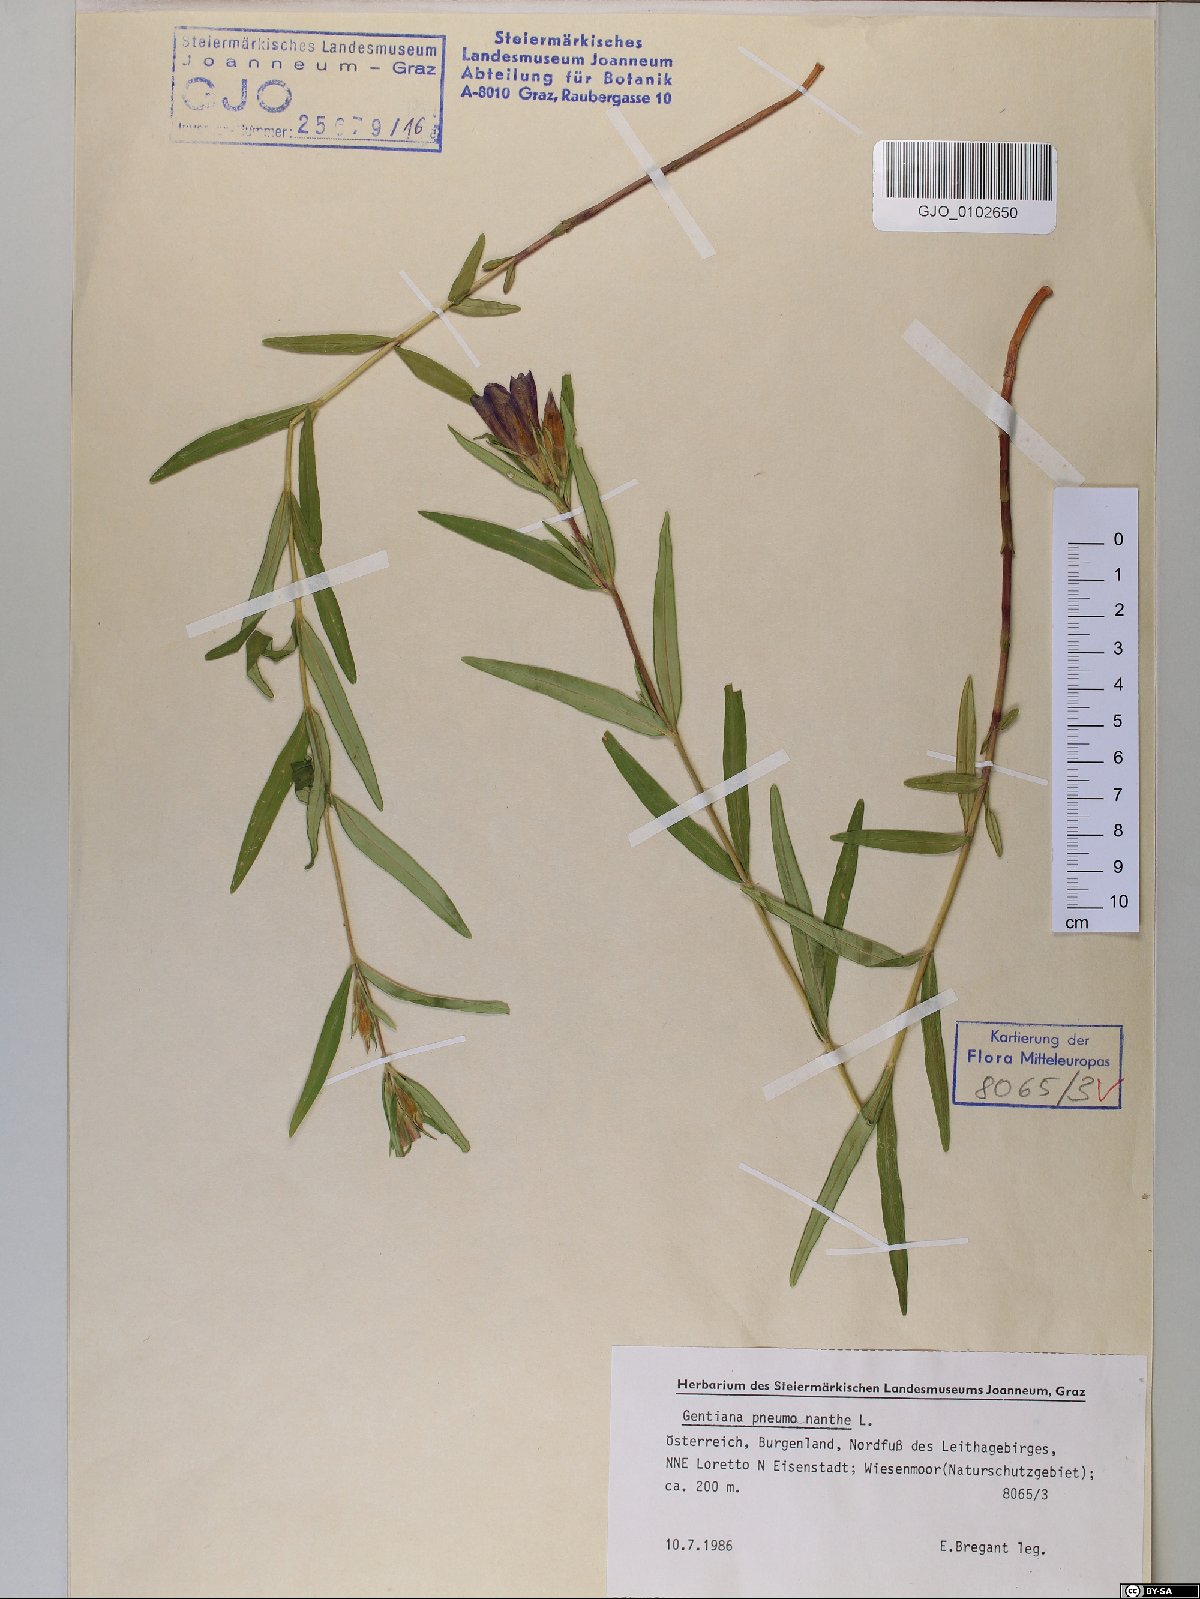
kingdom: Plantae
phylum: Tracheophyta
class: Magnoliopsida
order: Gentianales
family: Gentianaceae
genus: Gentiana
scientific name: Gentiana pneumonanthe
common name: Marsh gentian
